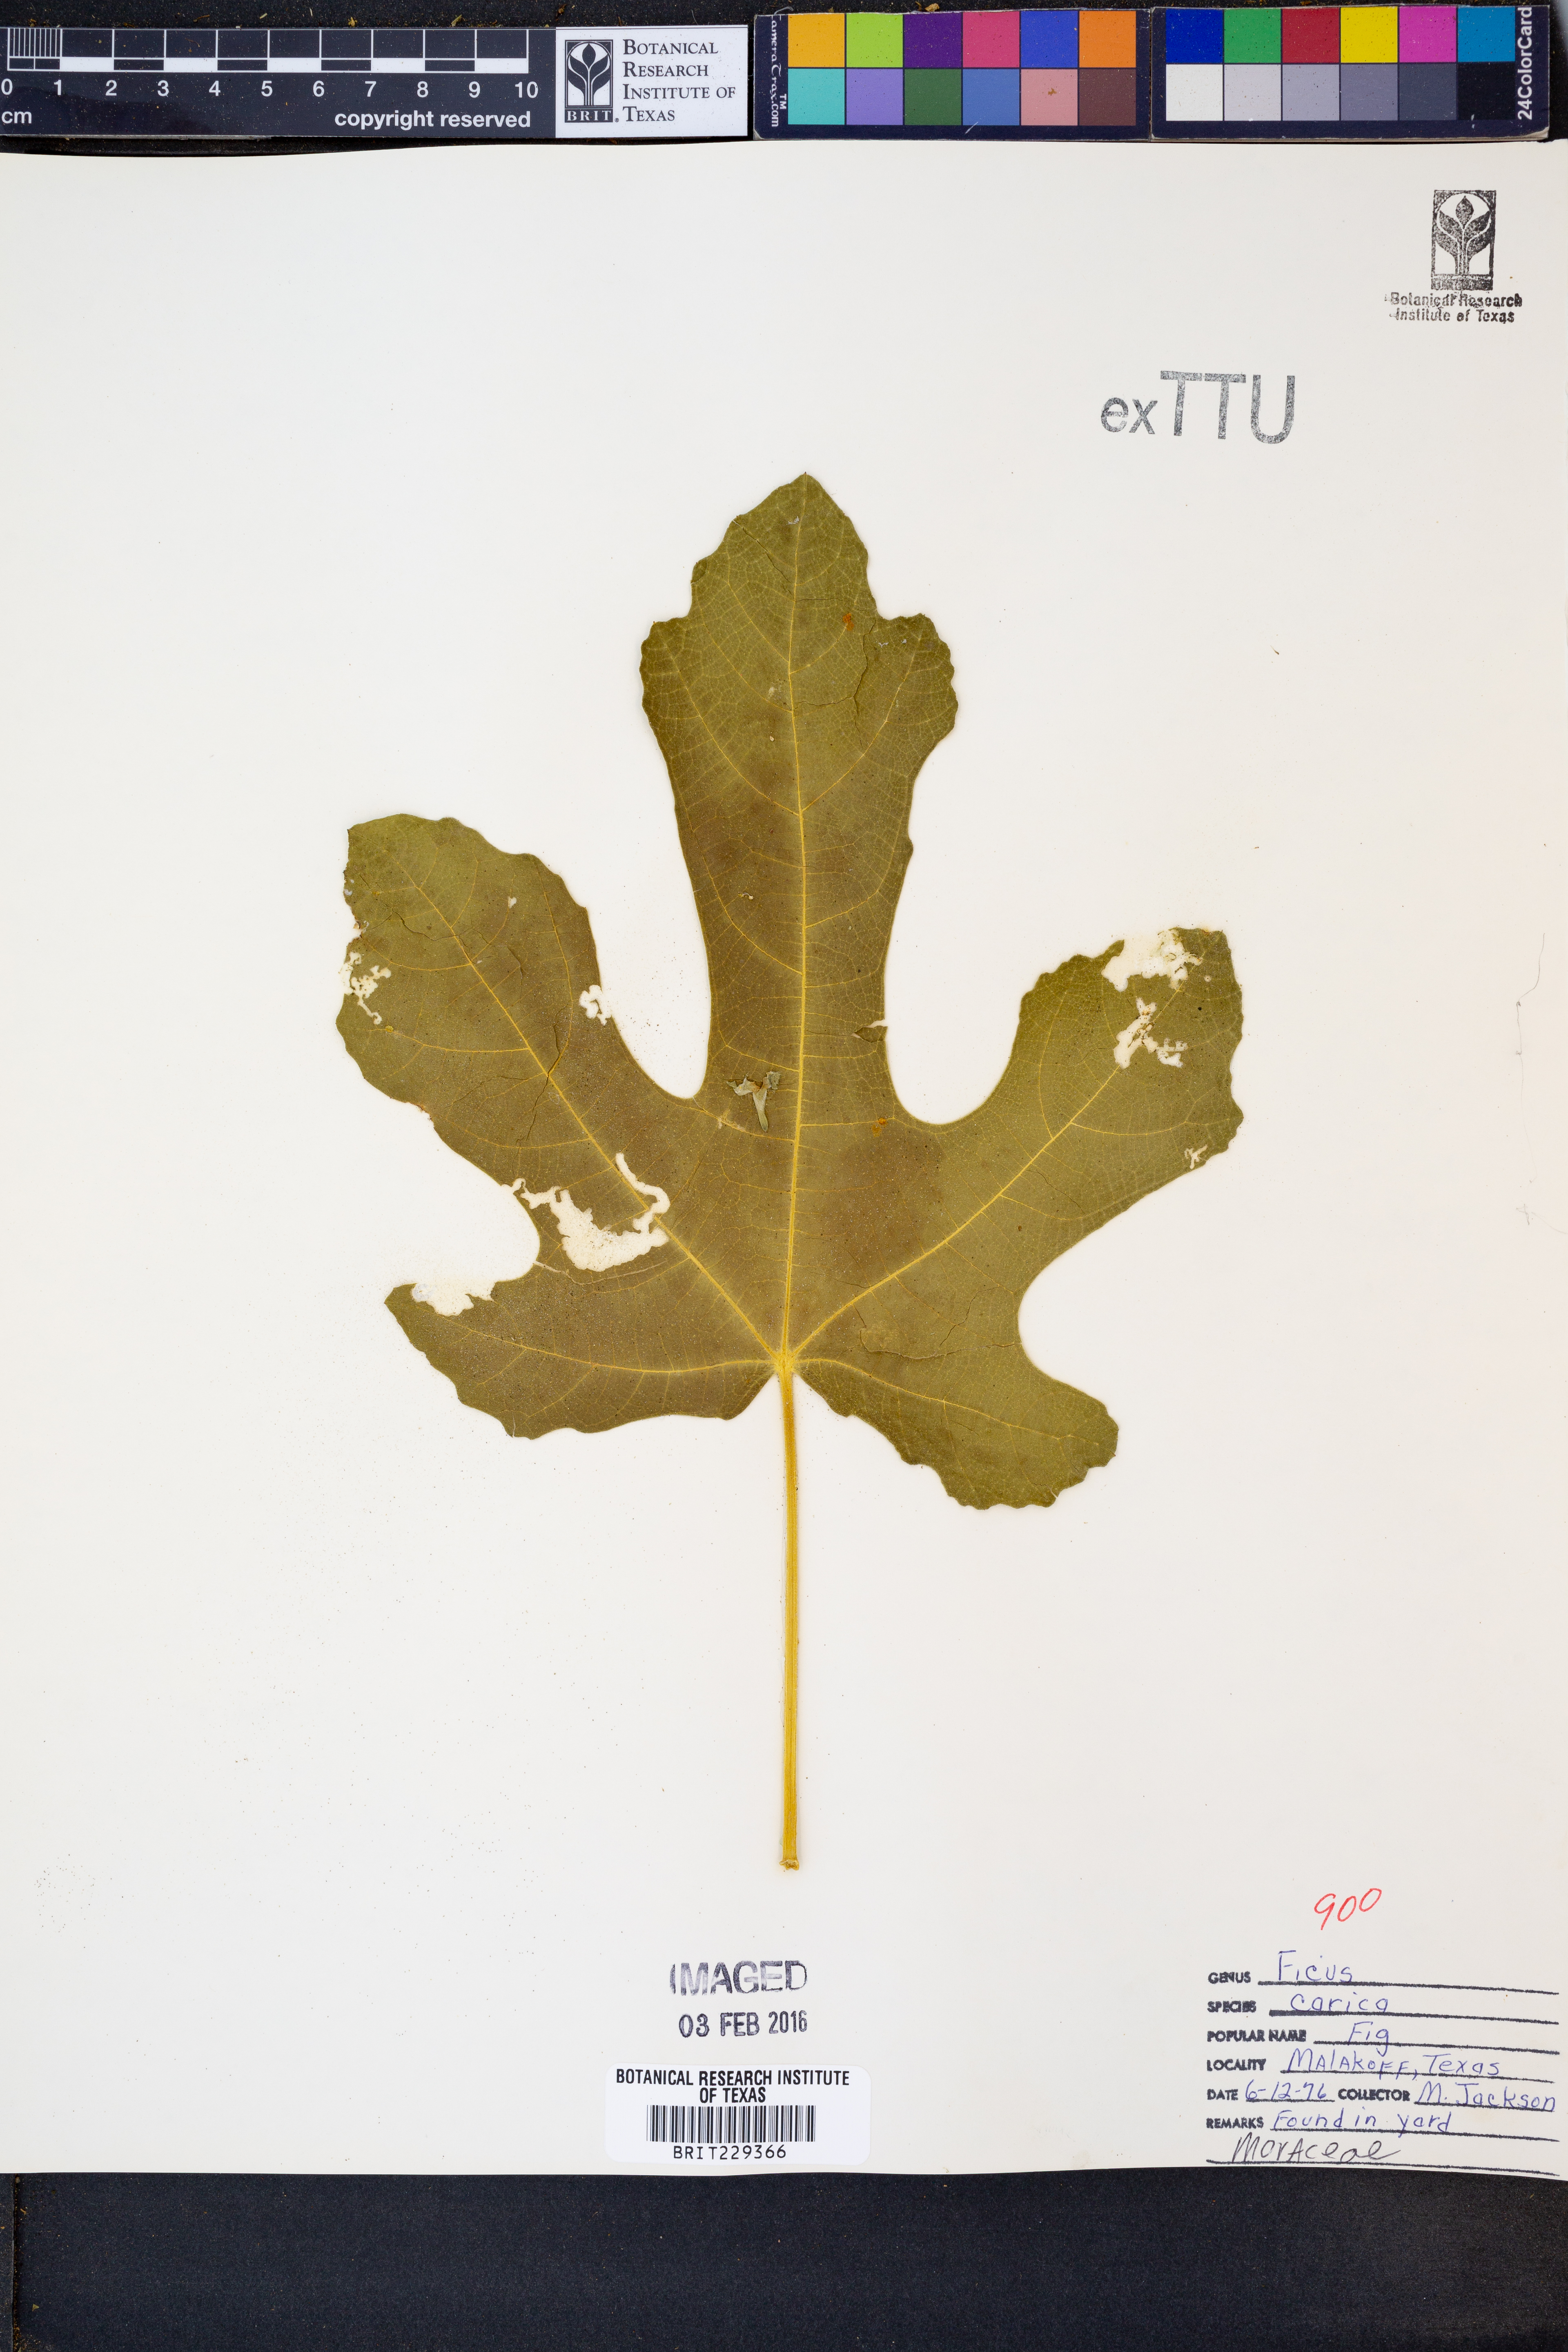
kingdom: Plantae
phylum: Tracheophyta
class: Magnoliopsida
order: Rosales
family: Moraceae
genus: Ficus
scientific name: Ficus carica
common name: Fig
